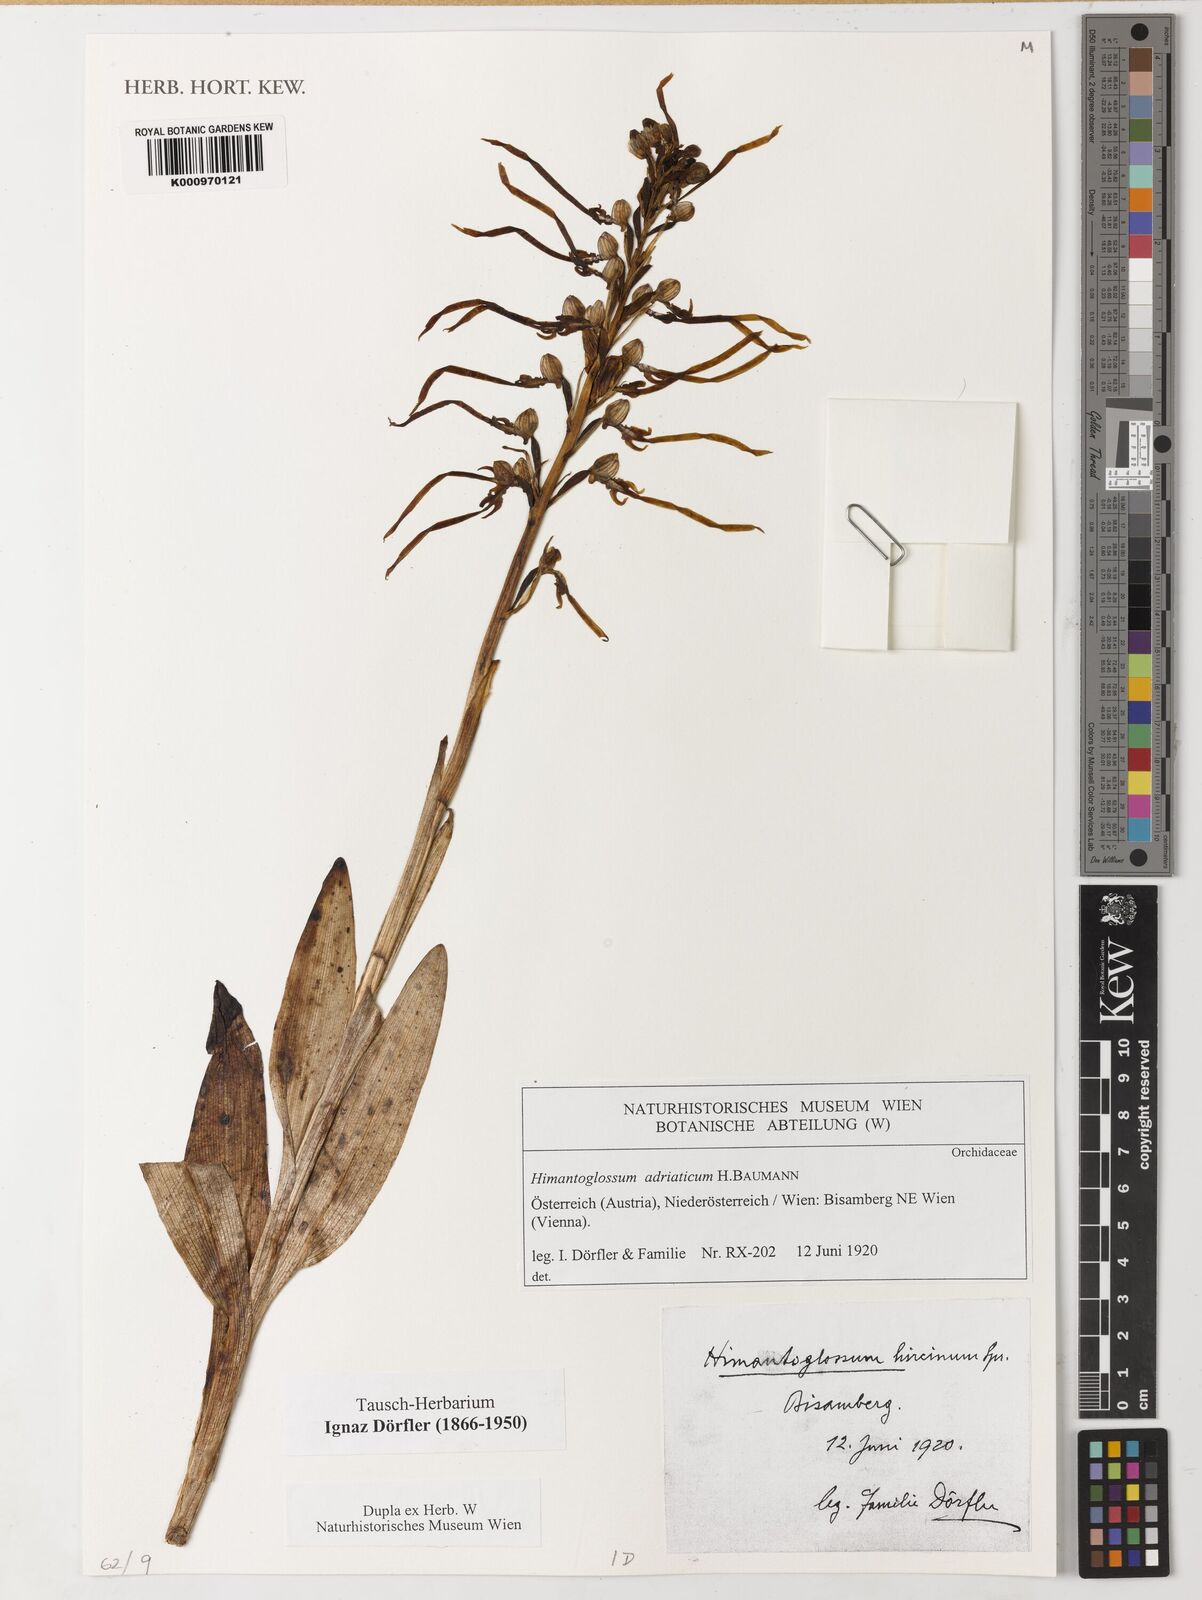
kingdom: Plantae
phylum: Tracheophyta
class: Liliopsida
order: Asparagales
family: Orchidaceae
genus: Himantoglossum
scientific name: Himantoglossum adriaticum
